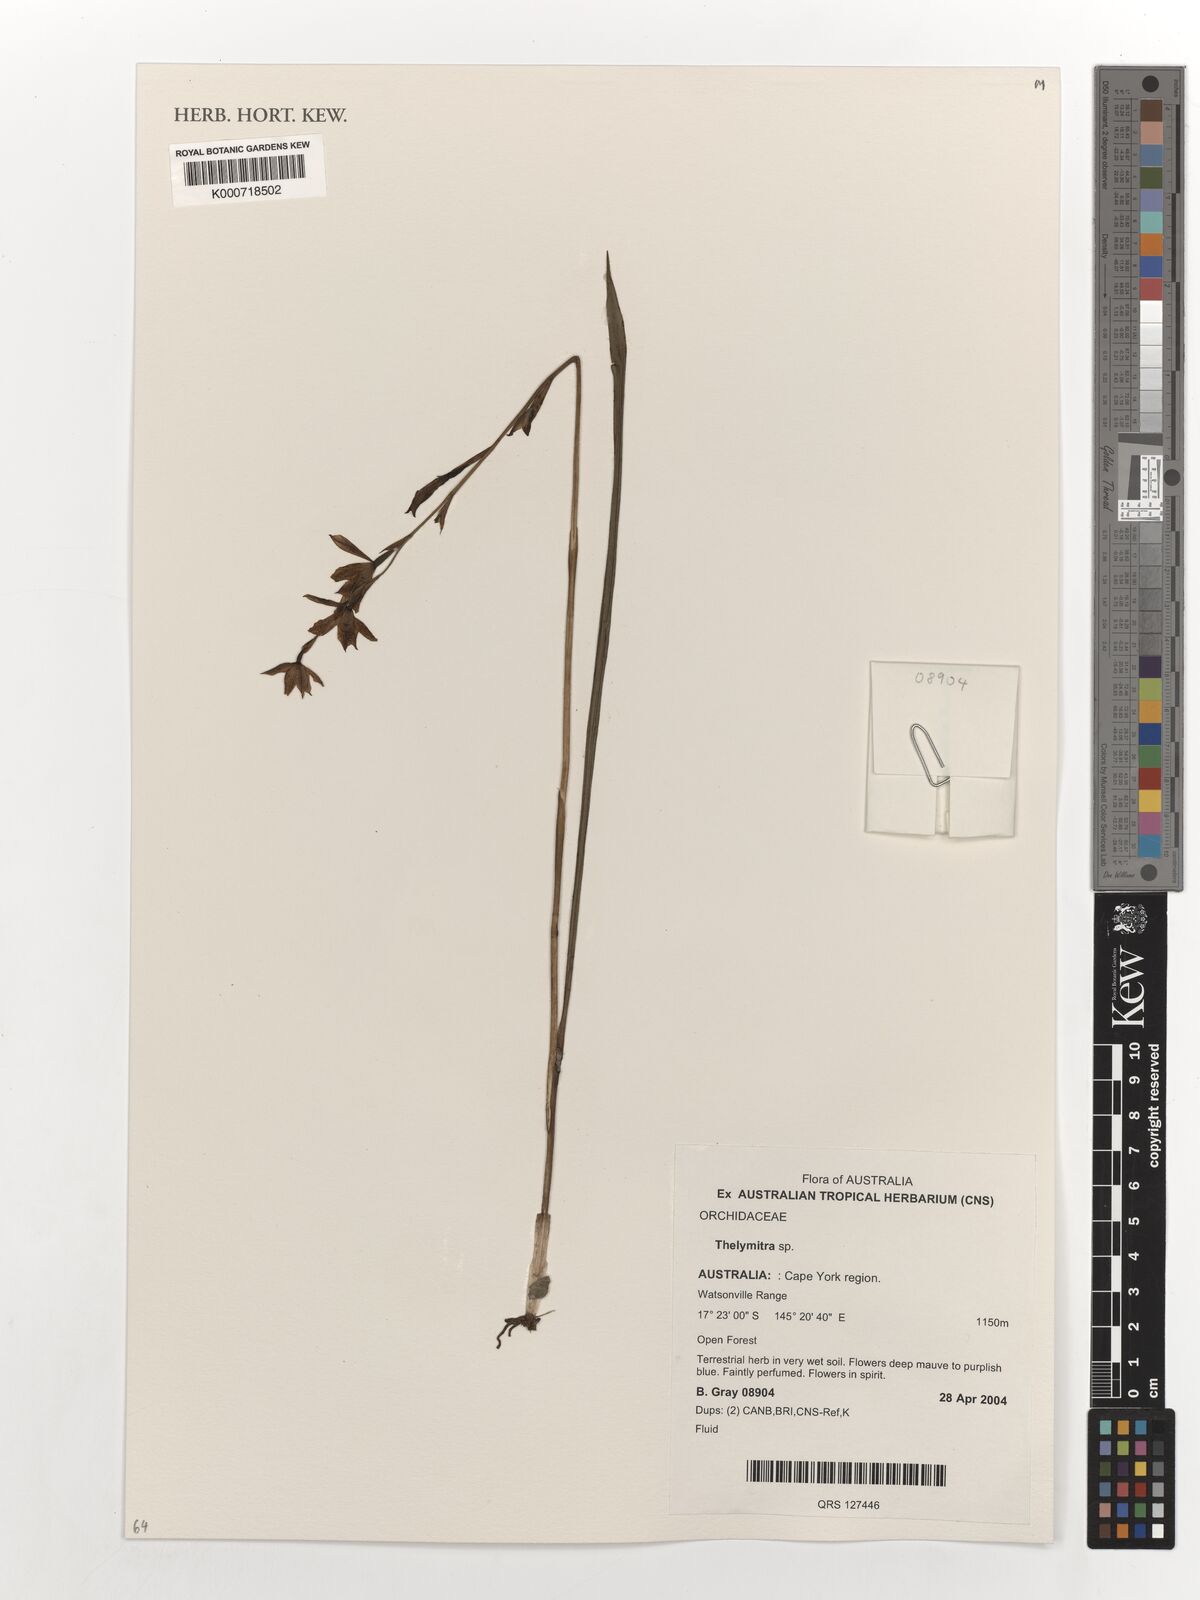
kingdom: Plantae
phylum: Tracheophyta
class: Liliopsida
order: Asparagales
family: Orchidaceae
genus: Thelymitra
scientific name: Thelymitra
